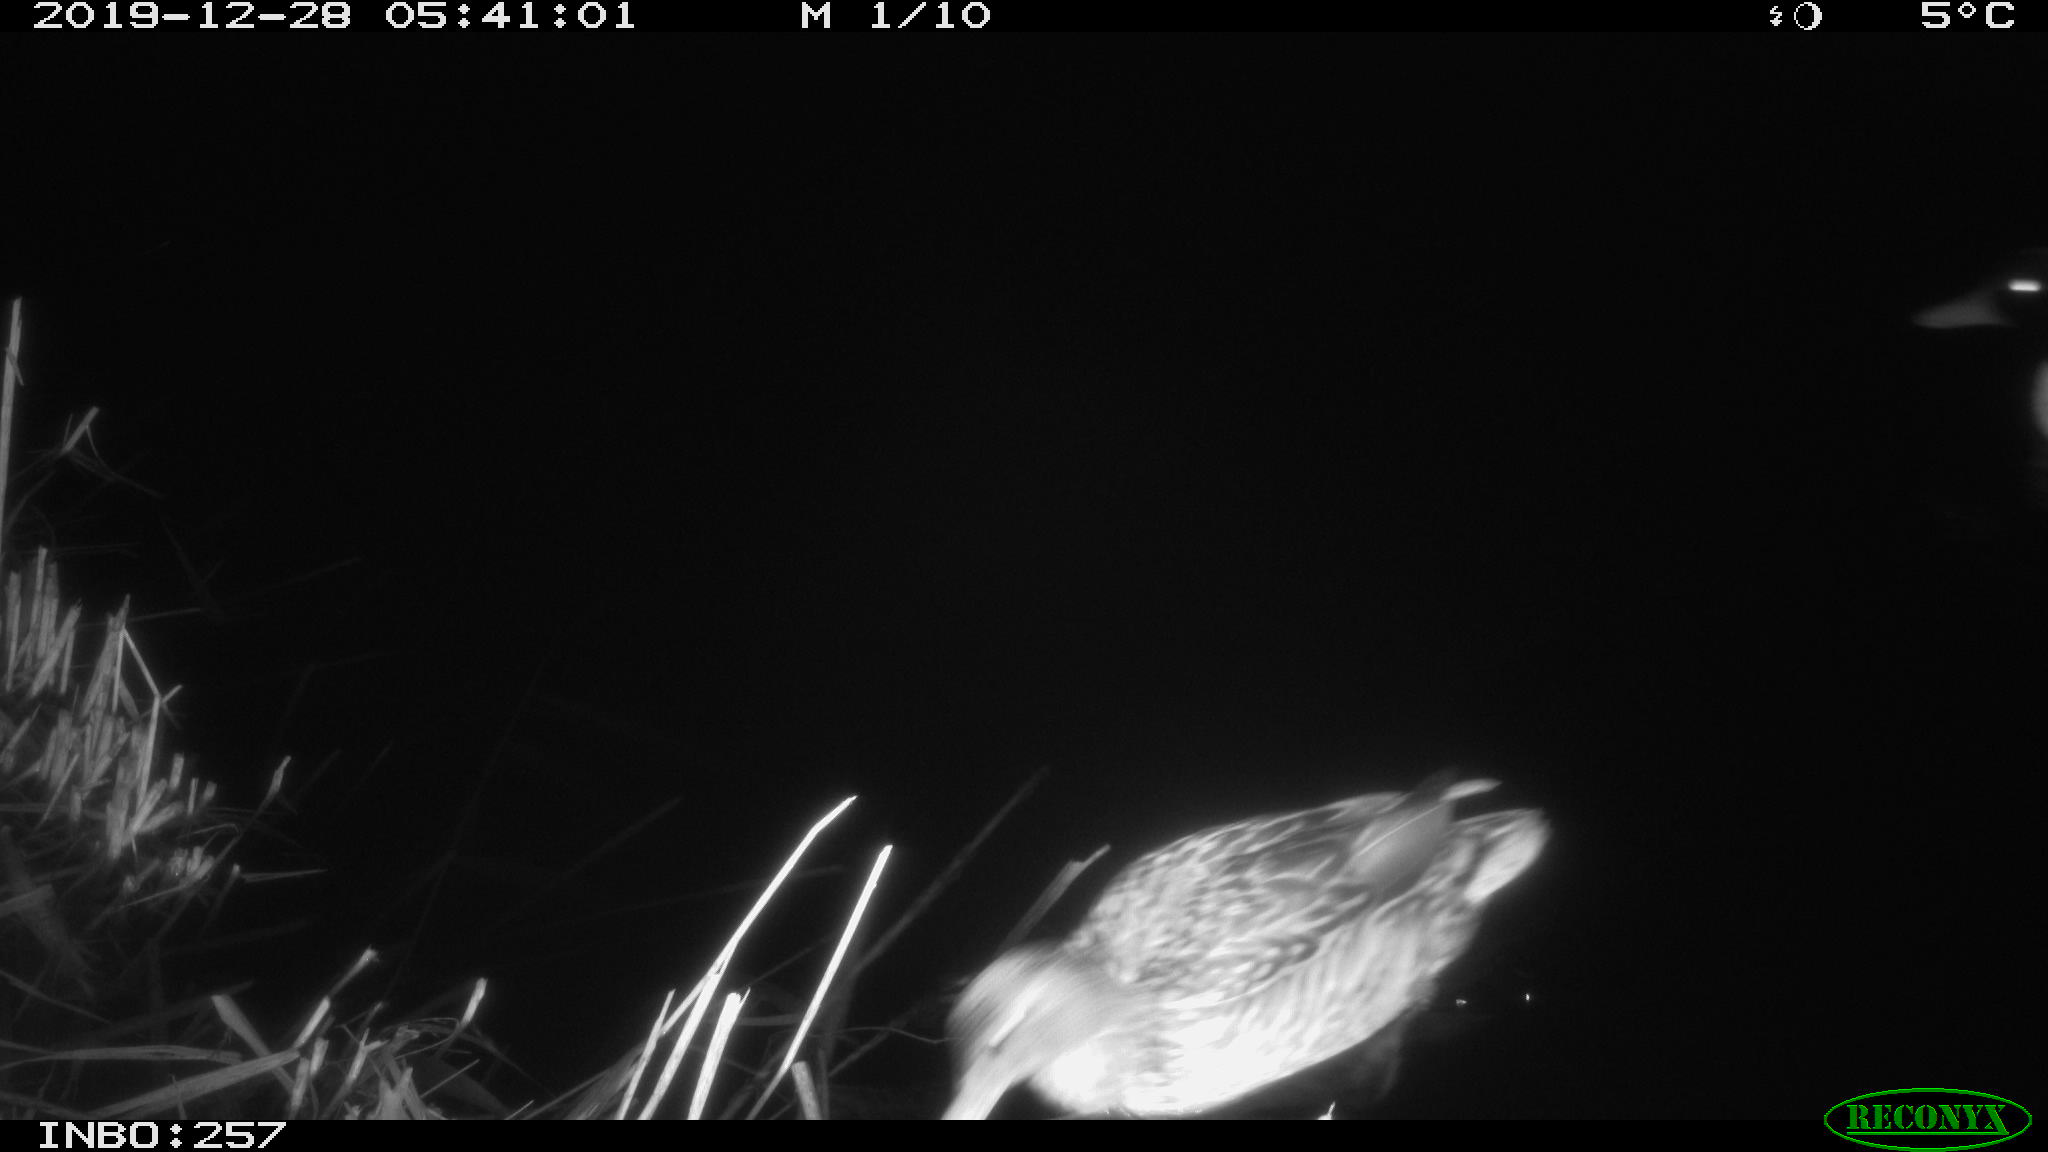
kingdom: Animalia
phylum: Chordata
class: Aves
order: Anseriformes
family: Anatidae
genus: Anas
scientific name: Anas platyrhynchos
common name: Mallard
